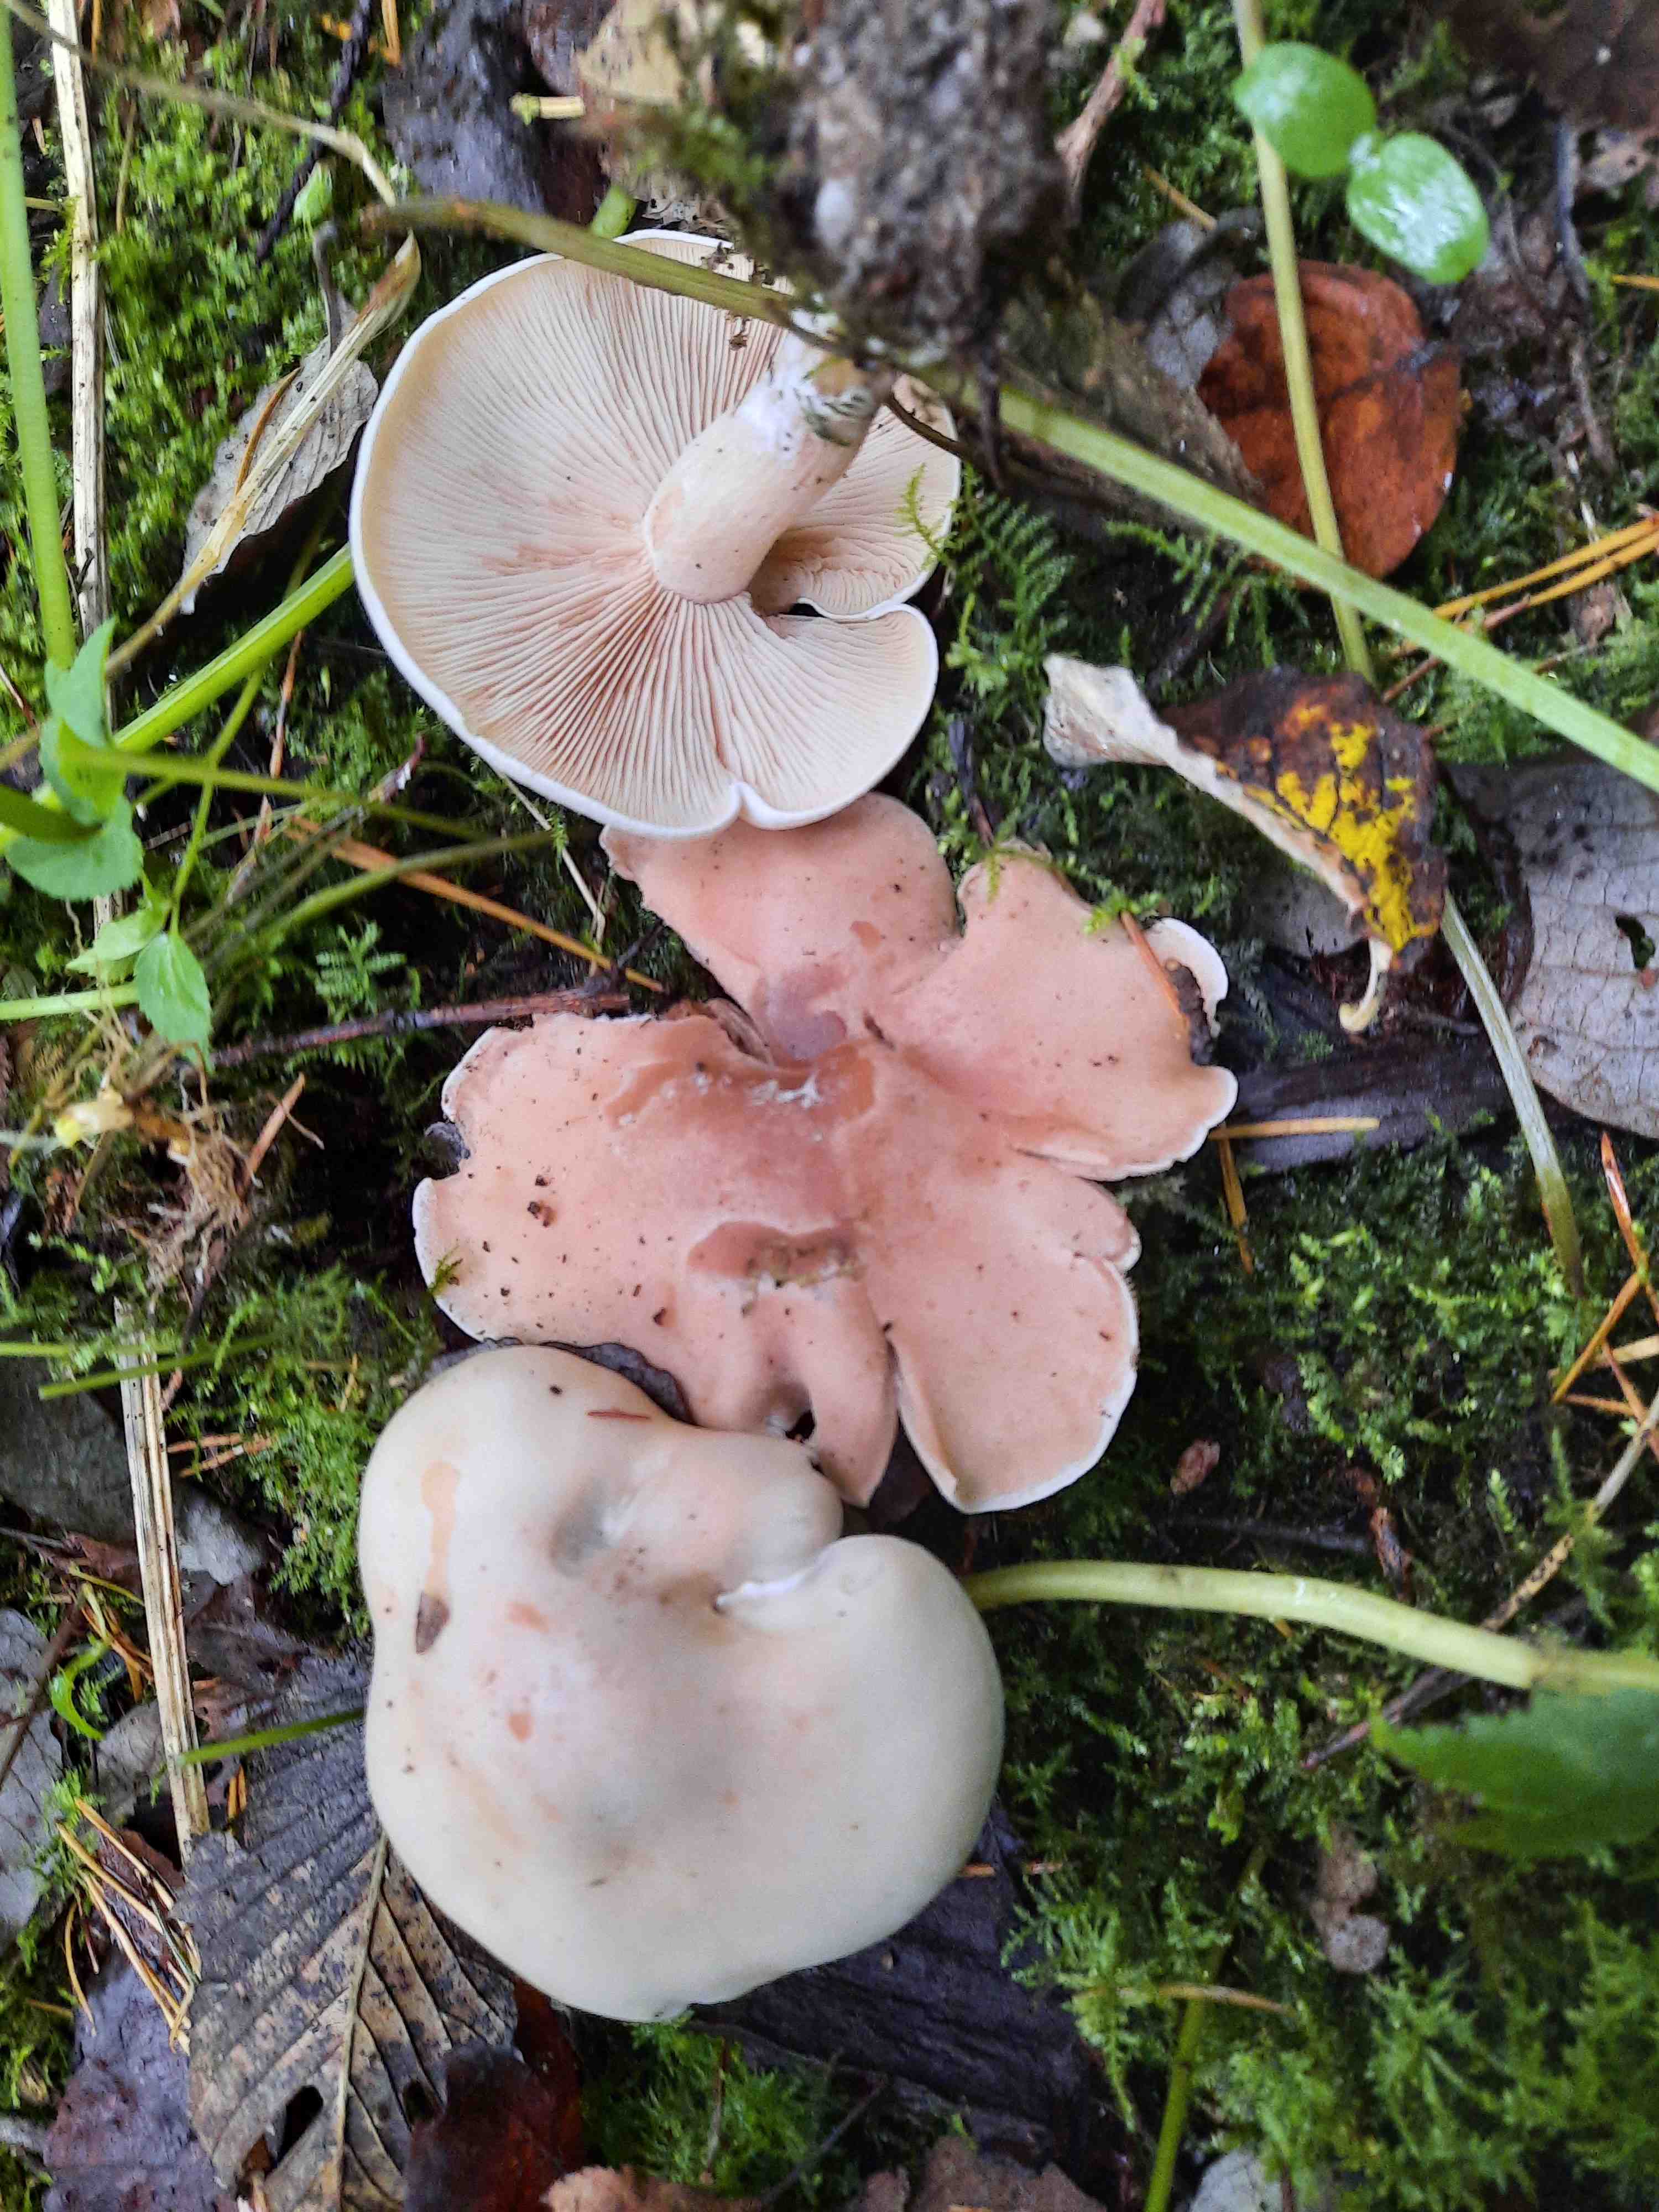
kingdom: Fungi
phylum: Basidiomycota
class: Agaricomycetes
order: Agaricales
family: Tricholomataceae
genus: Lepista
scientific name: Lepista irina
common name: violduftende hekseringshat
